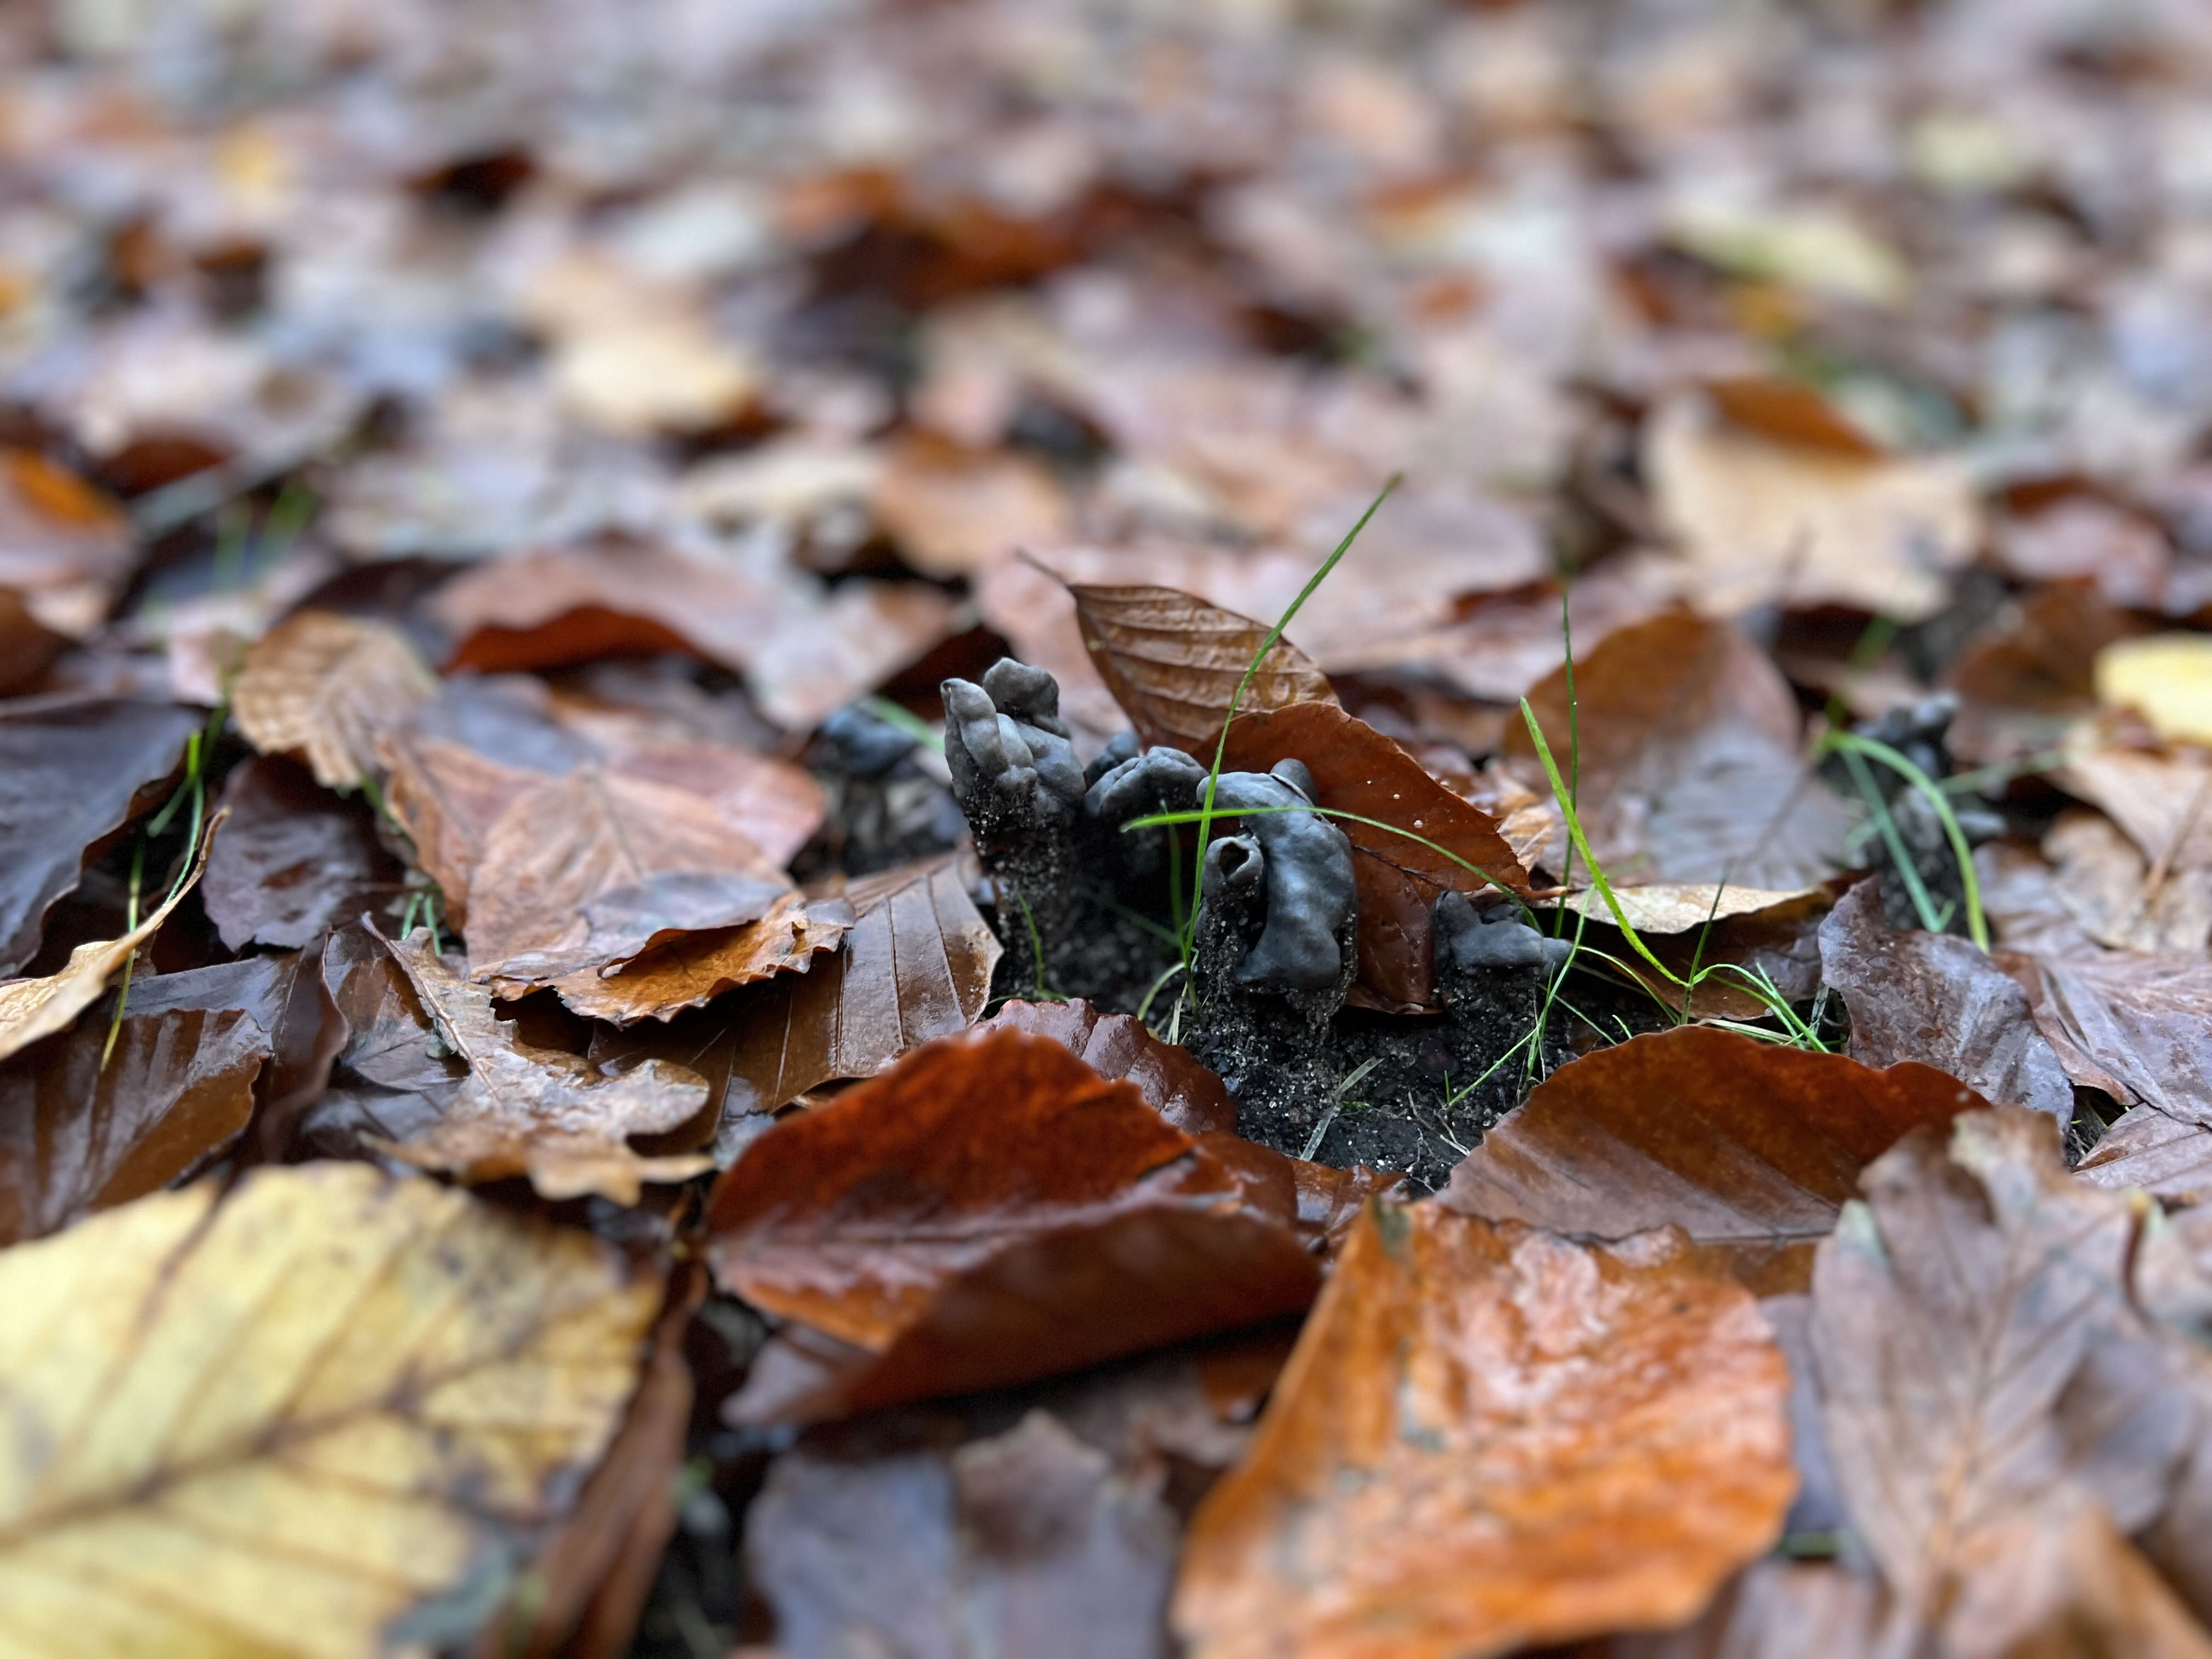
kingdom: Fungi
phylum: Ascomycota
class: Pezizomycetes
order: Pezizales
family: Helvellaceae
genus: Helvella
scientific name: Helvella lacunosa
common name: grubet foldhat
